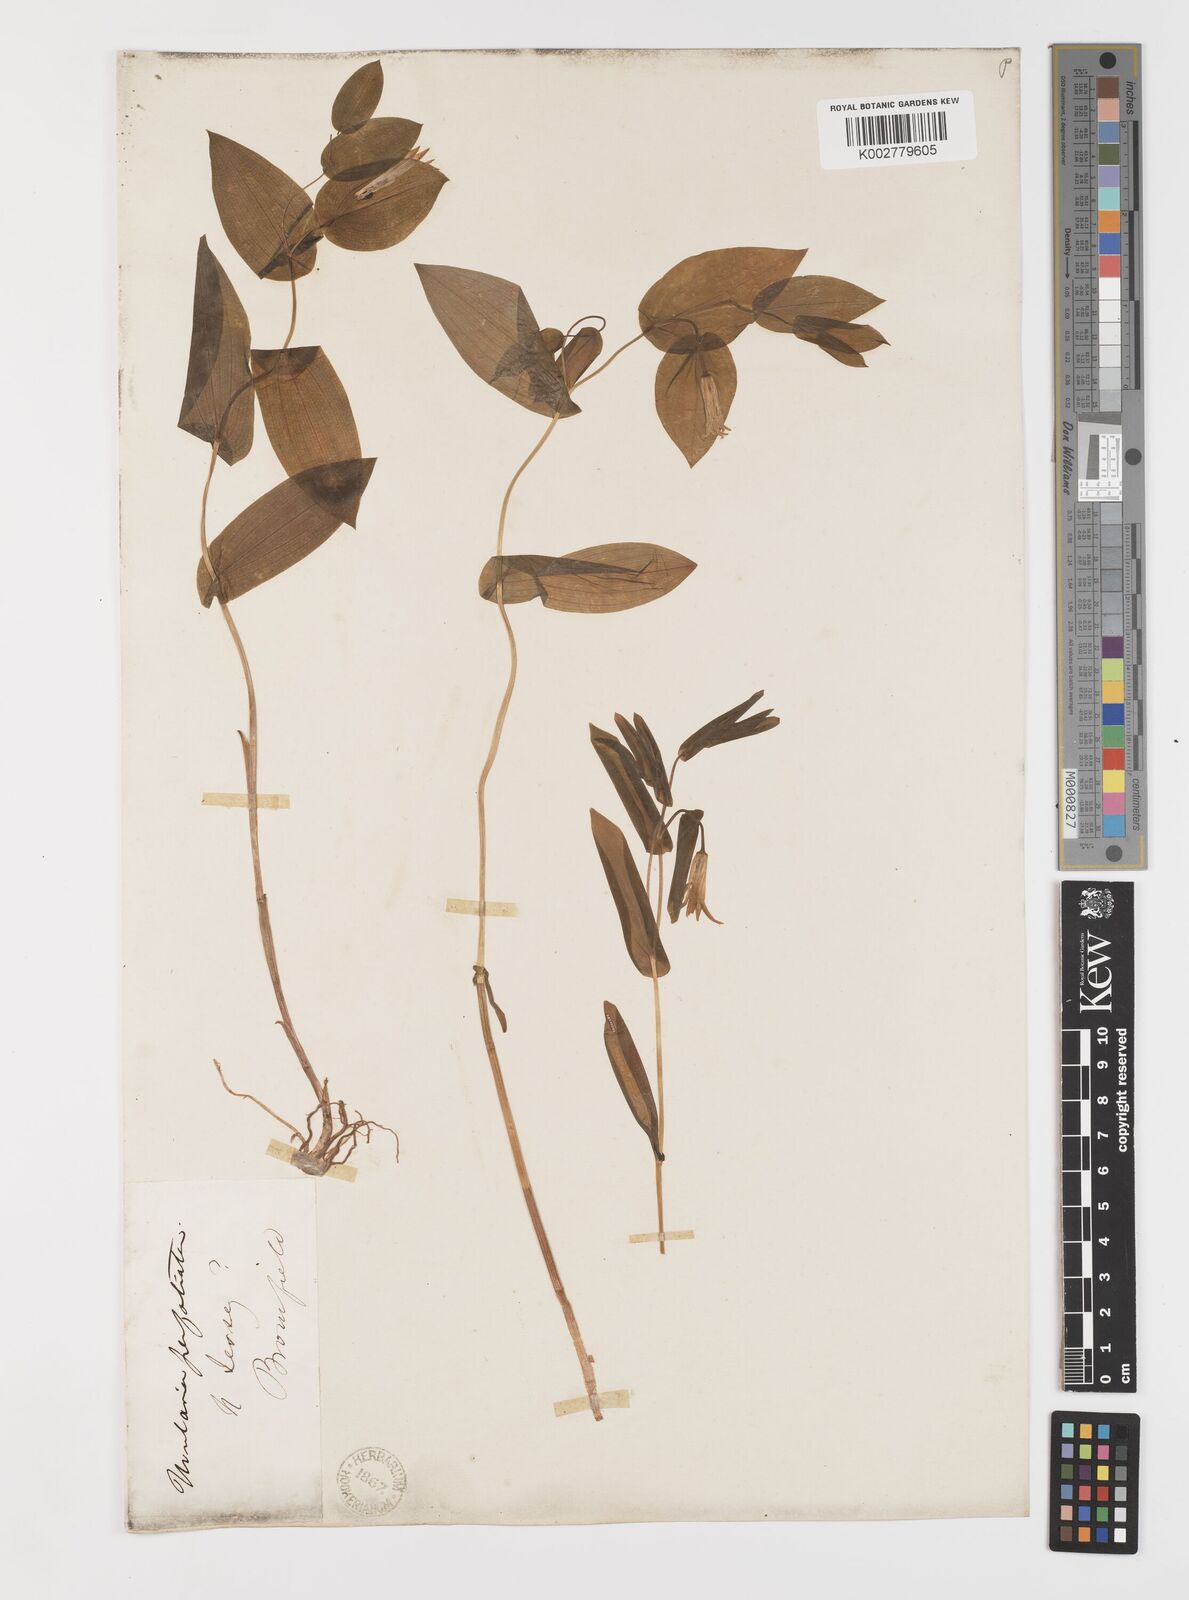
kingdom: Plantae
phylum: Tracheophyta
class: Liliopsida
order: Liliales
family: Colchicaceae
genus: Uvularia
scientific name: Uvularia perfoliata
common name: Perfoliate bellwort
